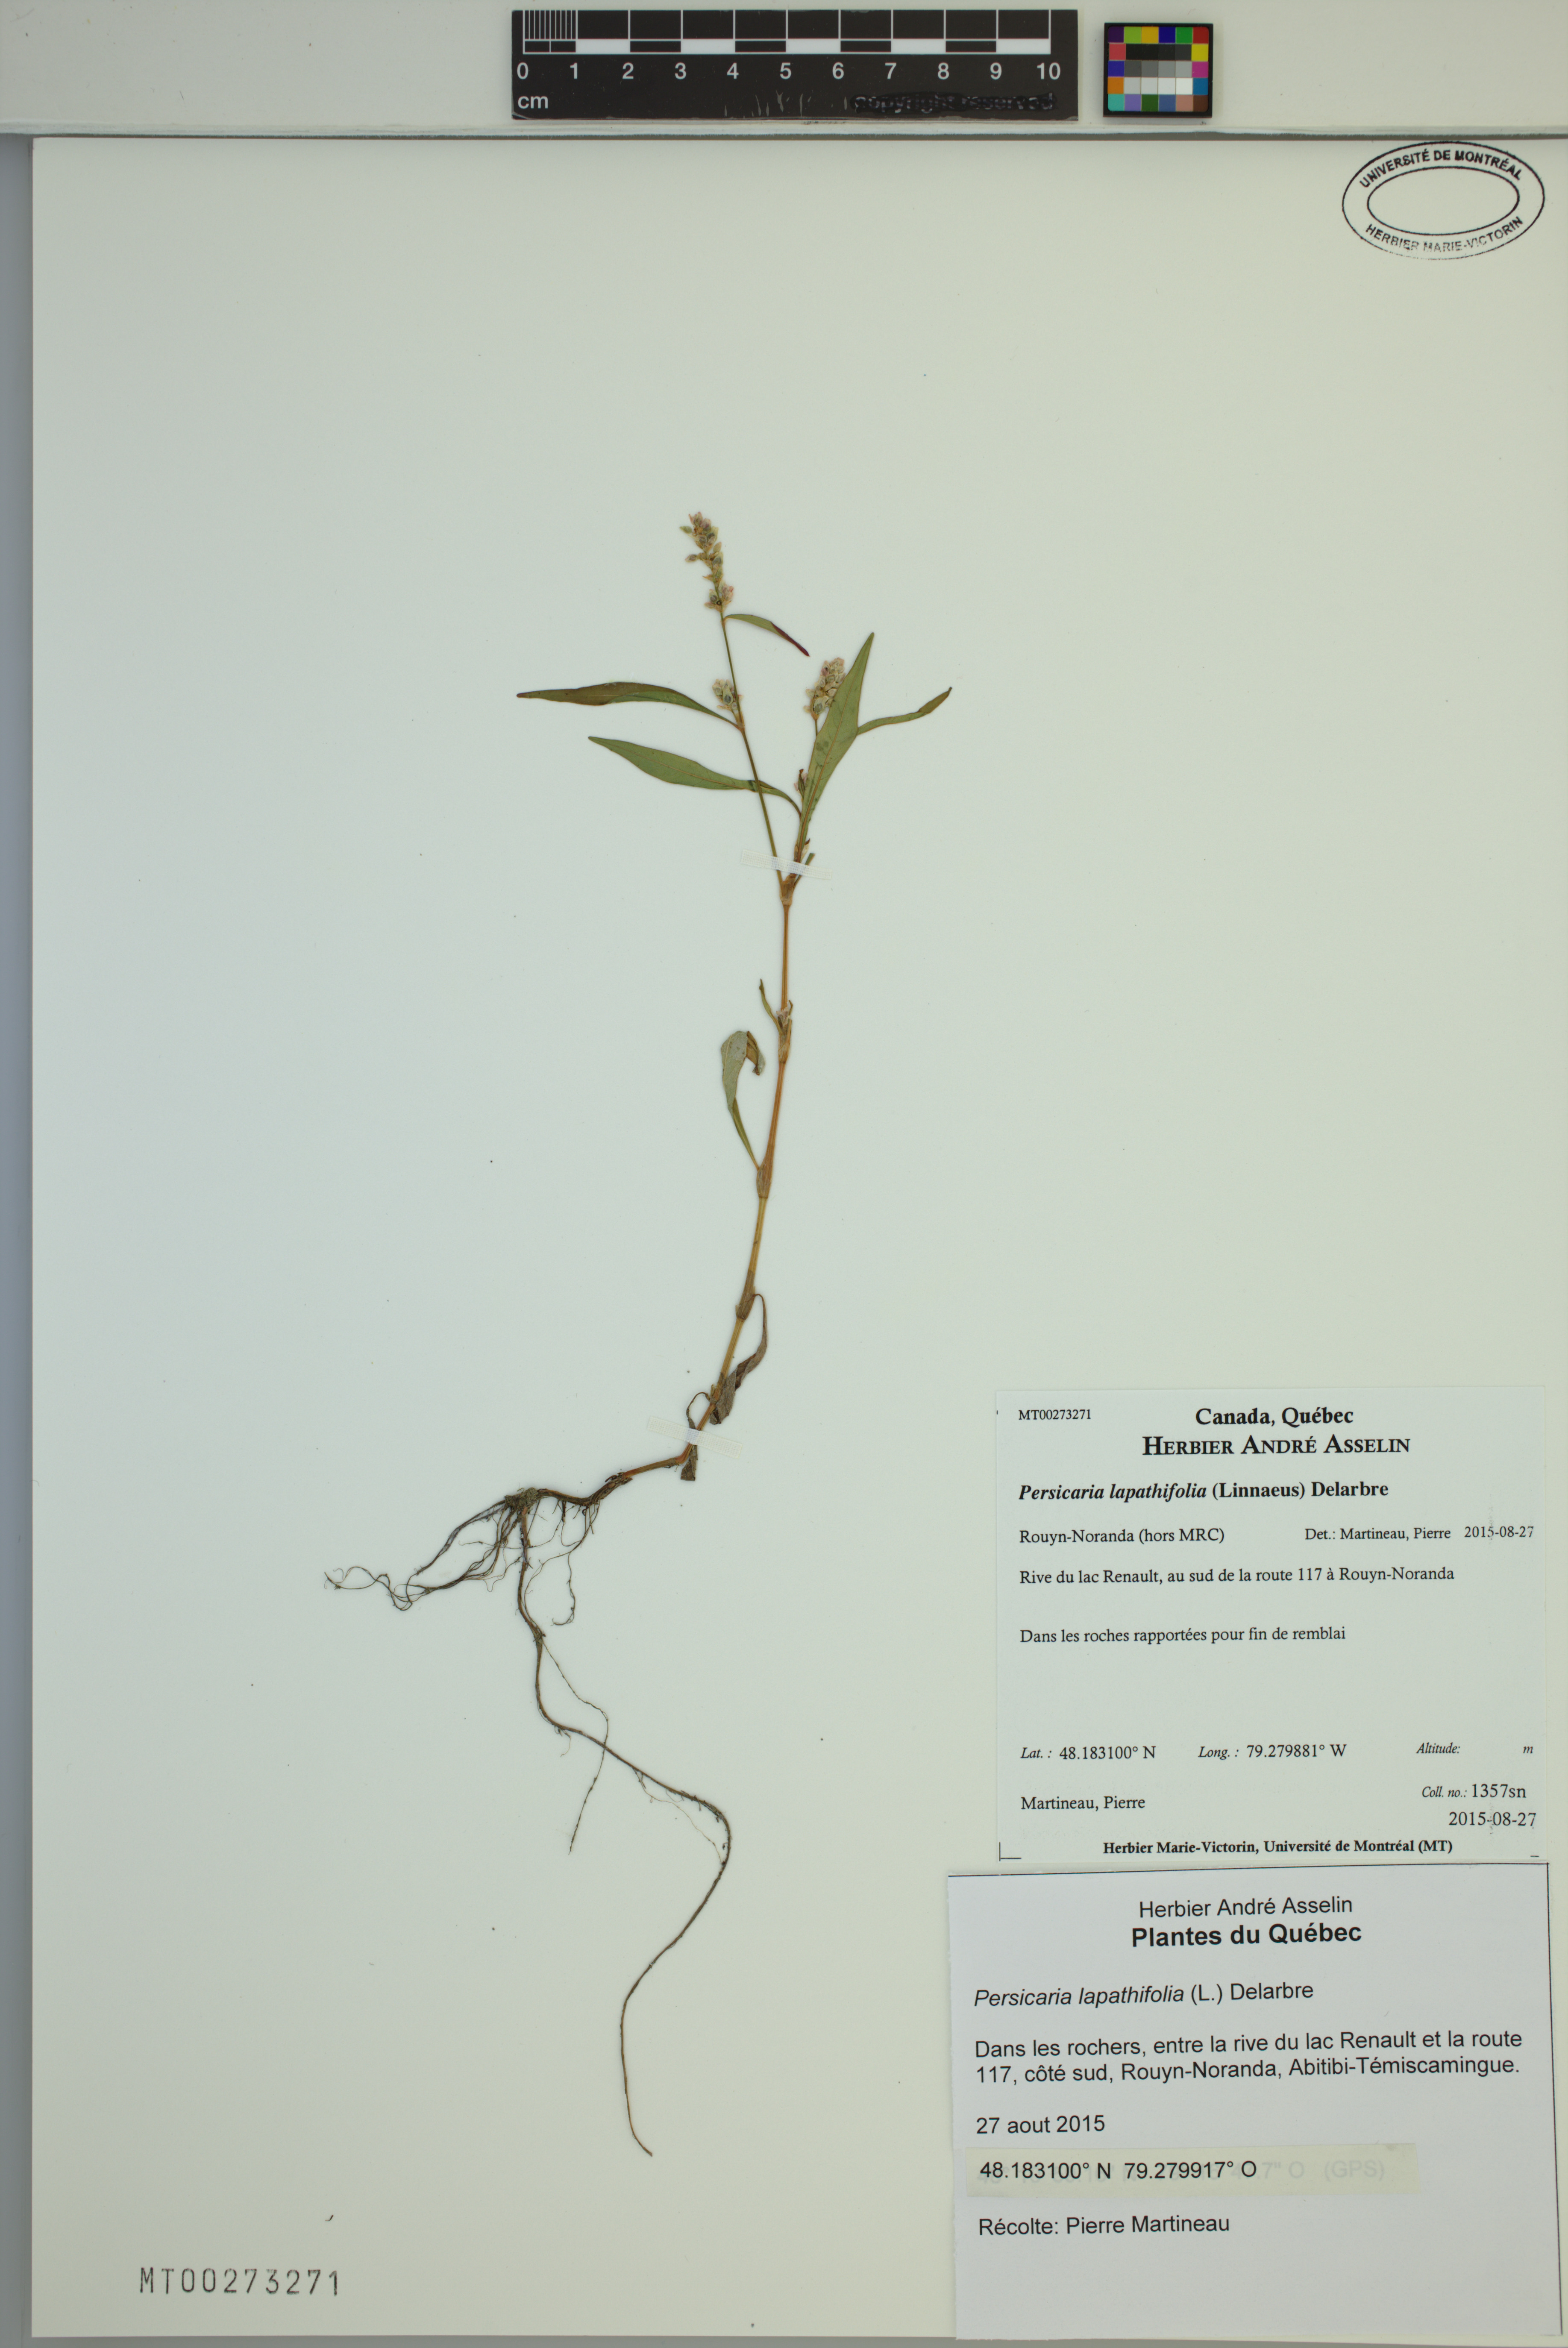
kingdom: Plantae
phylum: Tracheophyta
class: Magnoliopsida
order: Caryophyllales
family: Polygonaceae
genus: Persicaria
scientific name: Persicaria lapathifolia
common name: Curlytop knotweed
